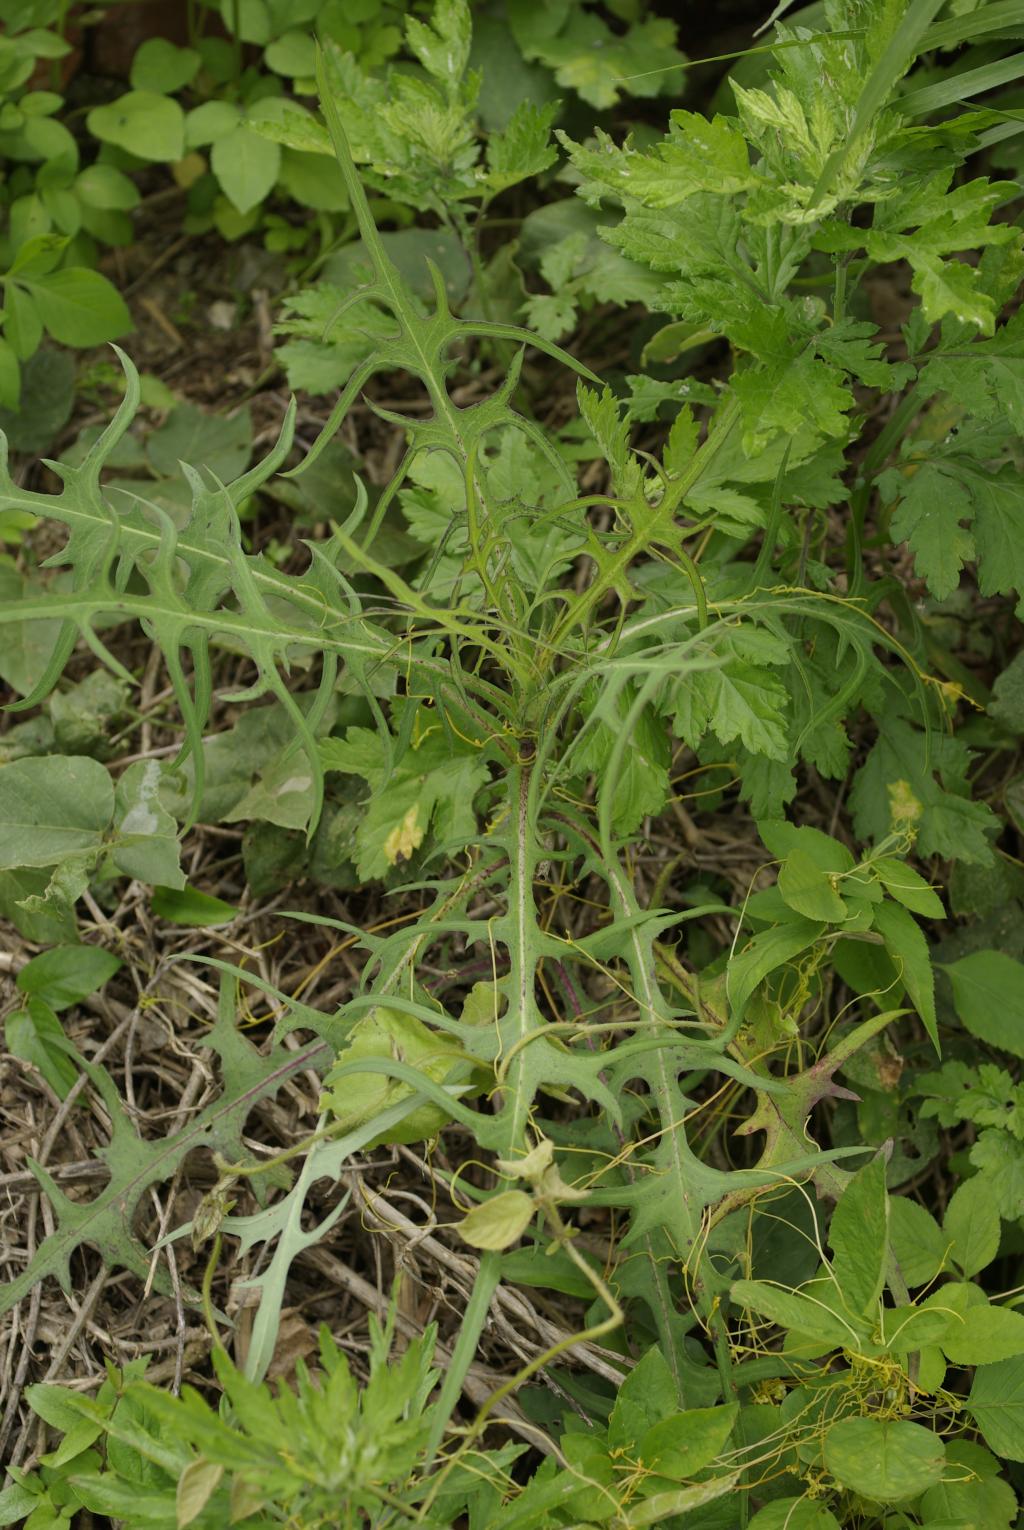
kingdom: Plantae
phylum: Tracheophyta
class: Magnoliopsida
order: Asterales
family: Asteraceae
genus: Lactuca
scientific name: Lactuca indica
